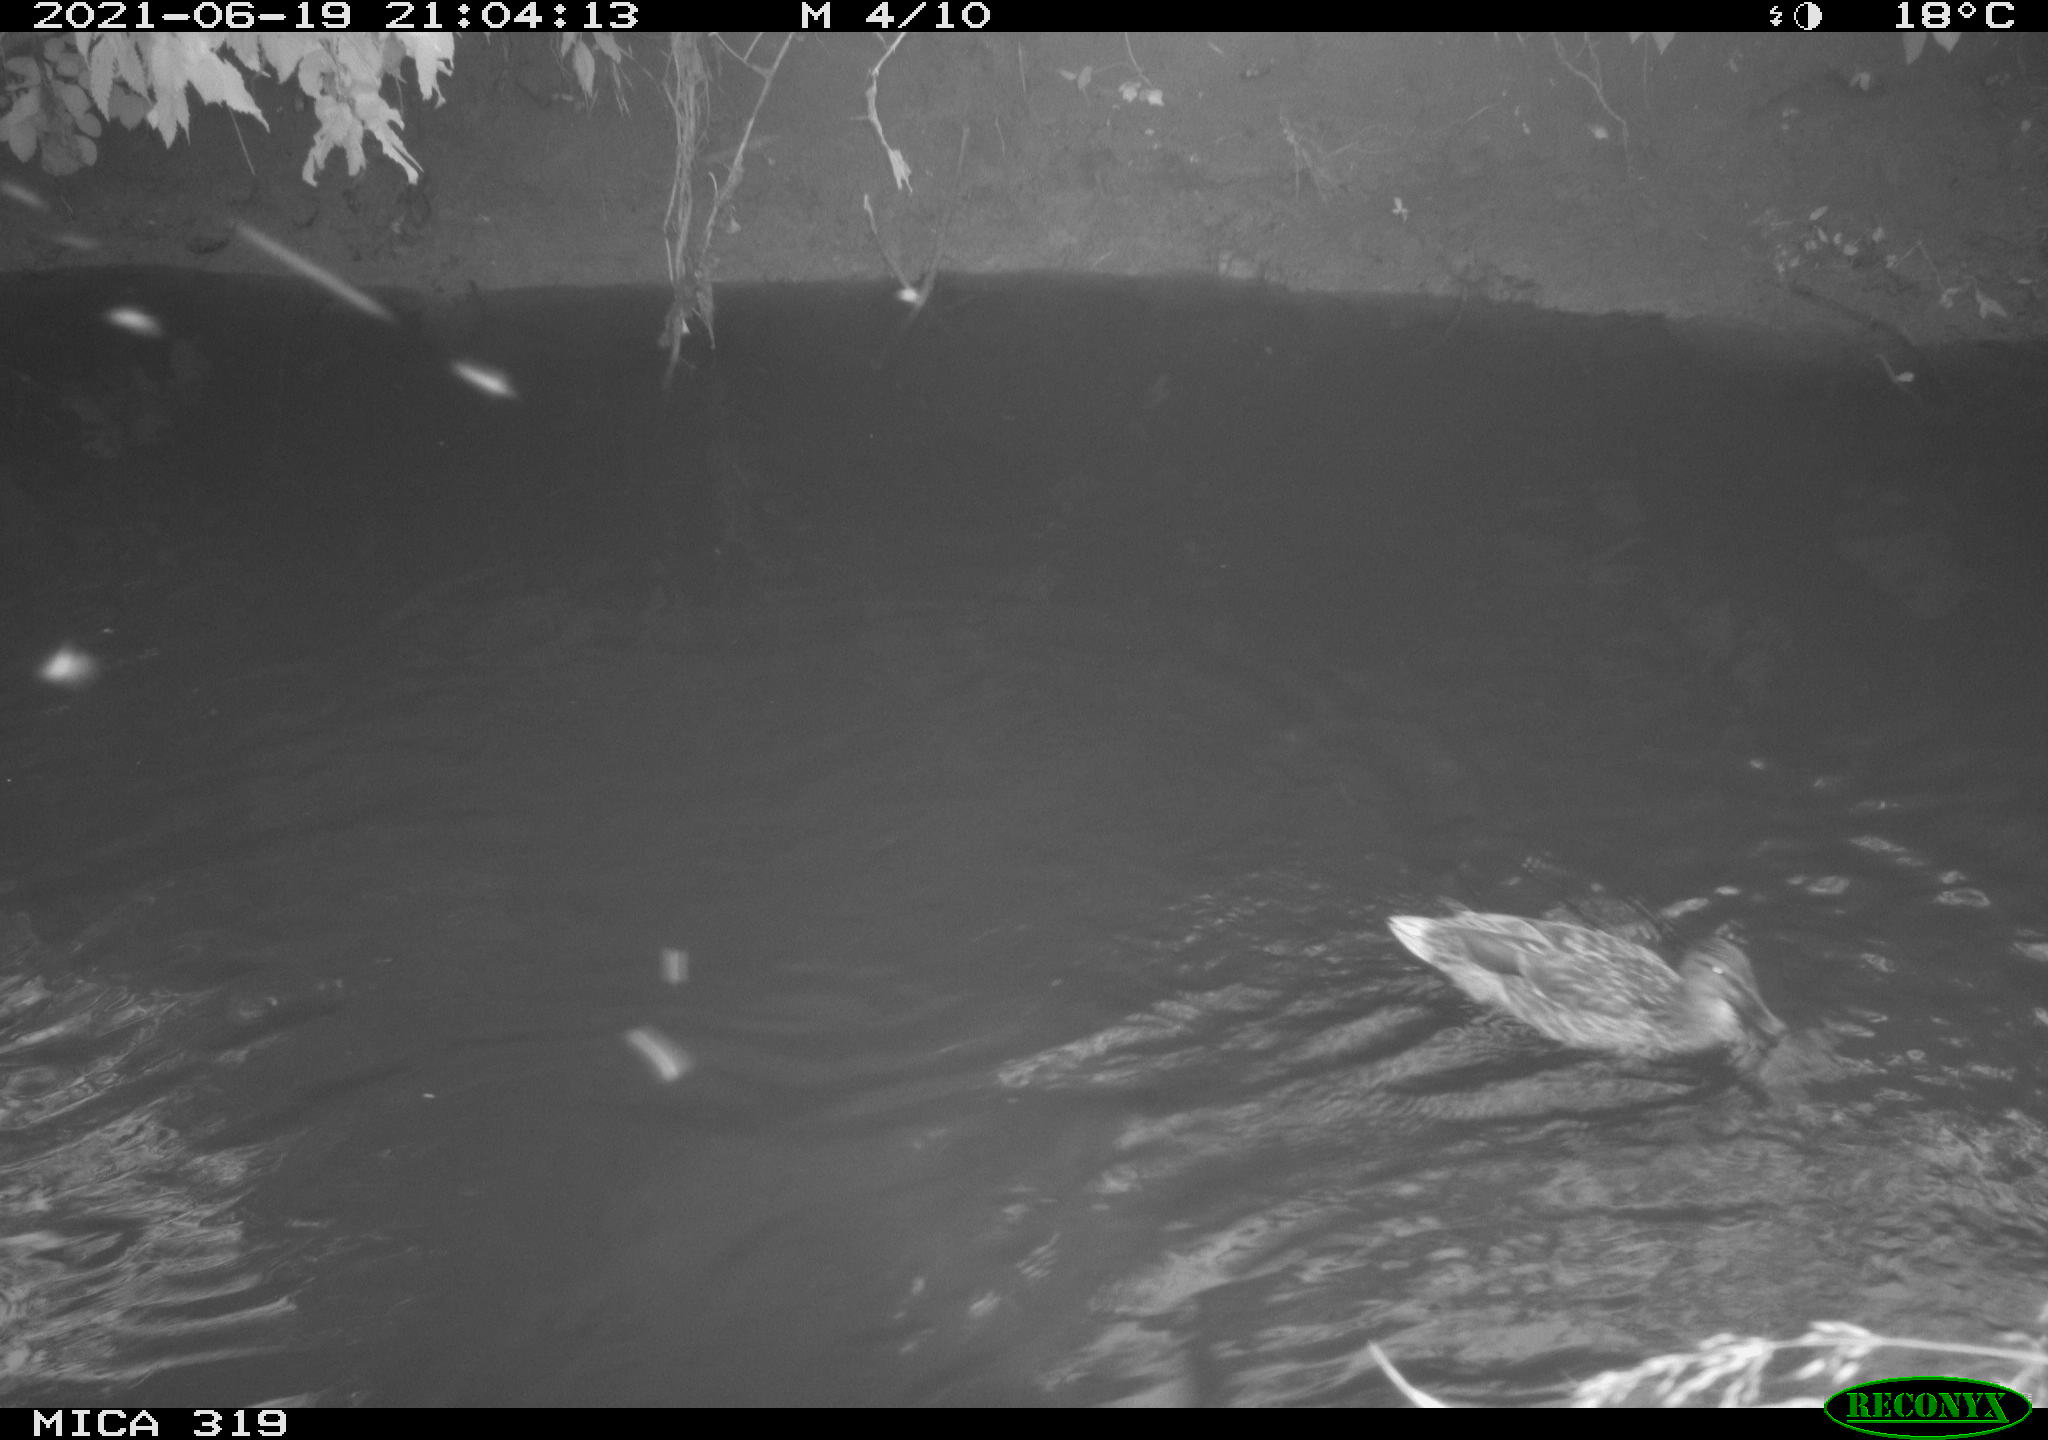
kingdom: Animalia
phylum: Chordata
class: Aves
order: Anseriformes
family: Anatidae
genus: Anas
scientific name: Anas platyrhynchos
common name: Mallard
